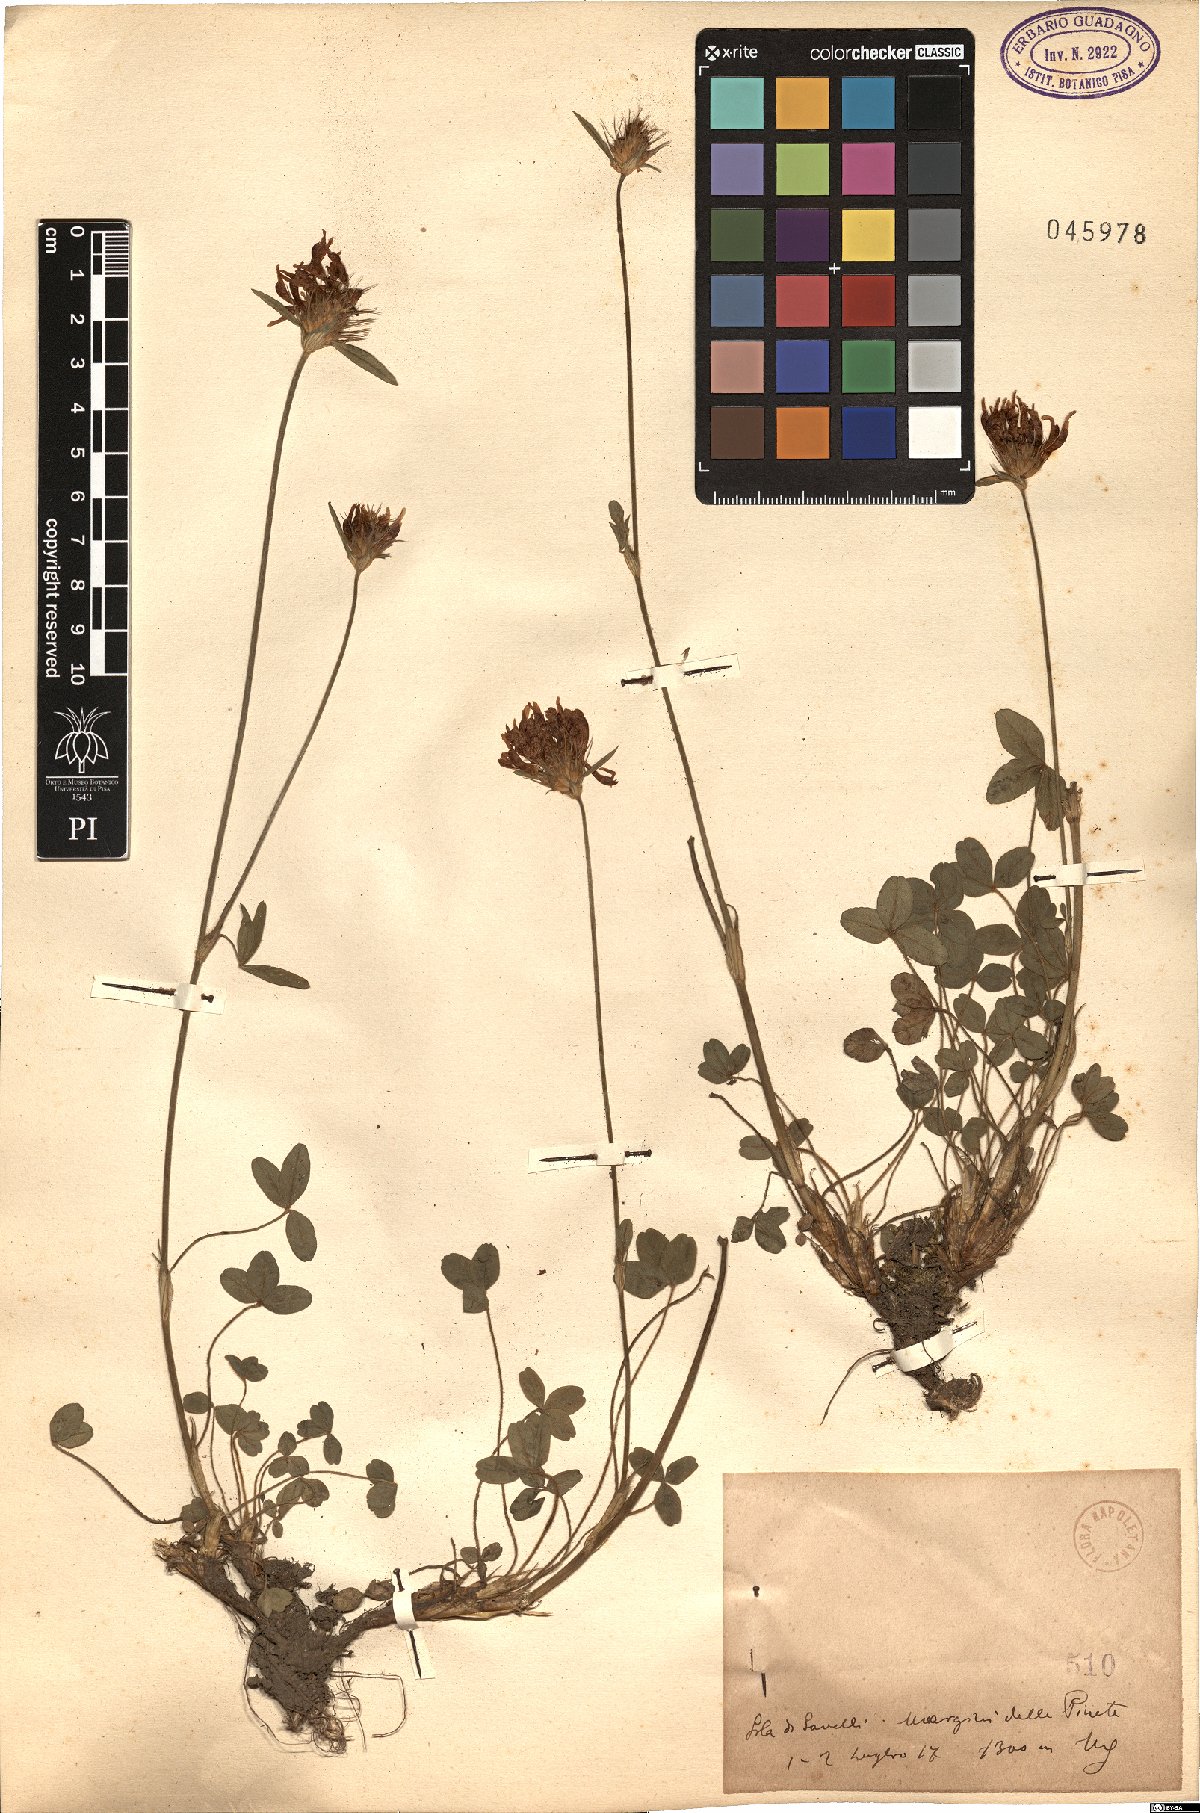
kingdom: Plantae
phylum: Tracheophyta
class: Magnoliopsida
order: Fabales
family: Fabaceae
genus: Trifolium
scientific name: Trifolium
